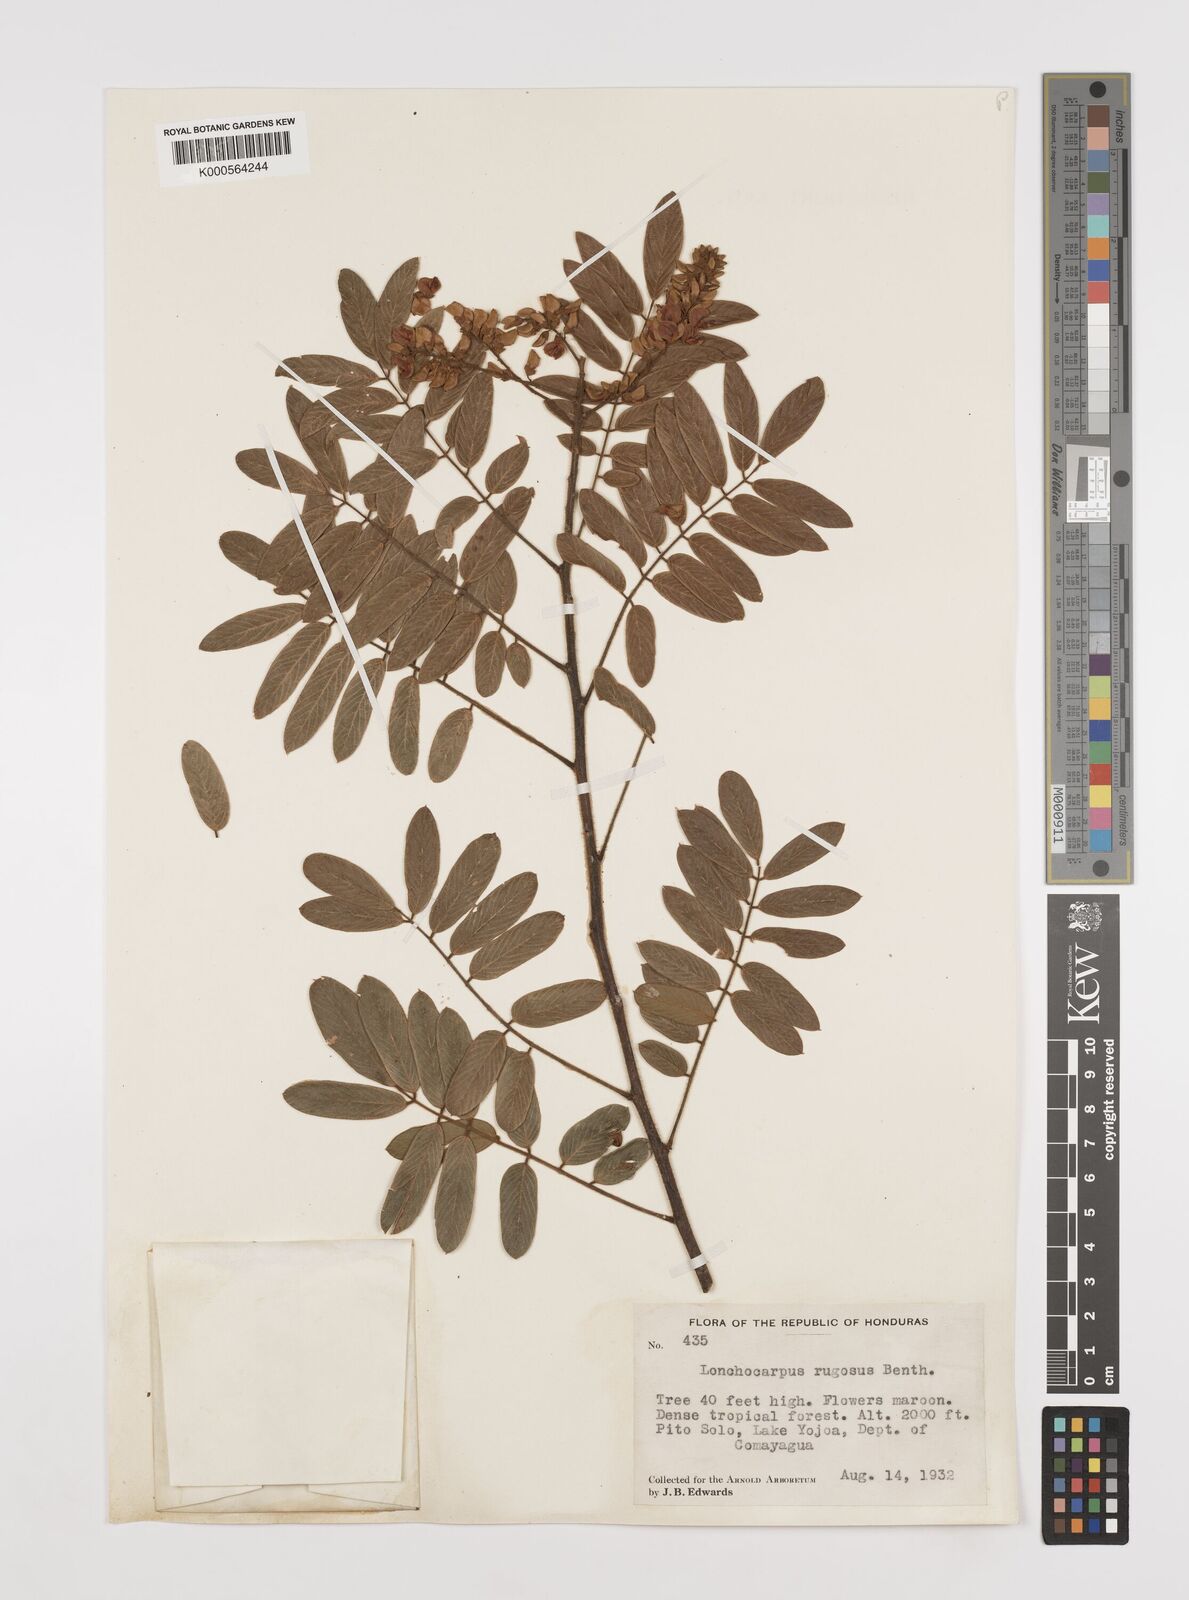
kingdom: Plantae
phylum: Tracheophyta
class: Magnoliopsida
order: Fabales
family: Fabaceae
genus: Lonchocarpus
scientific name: Lonchocarpus rugosus
